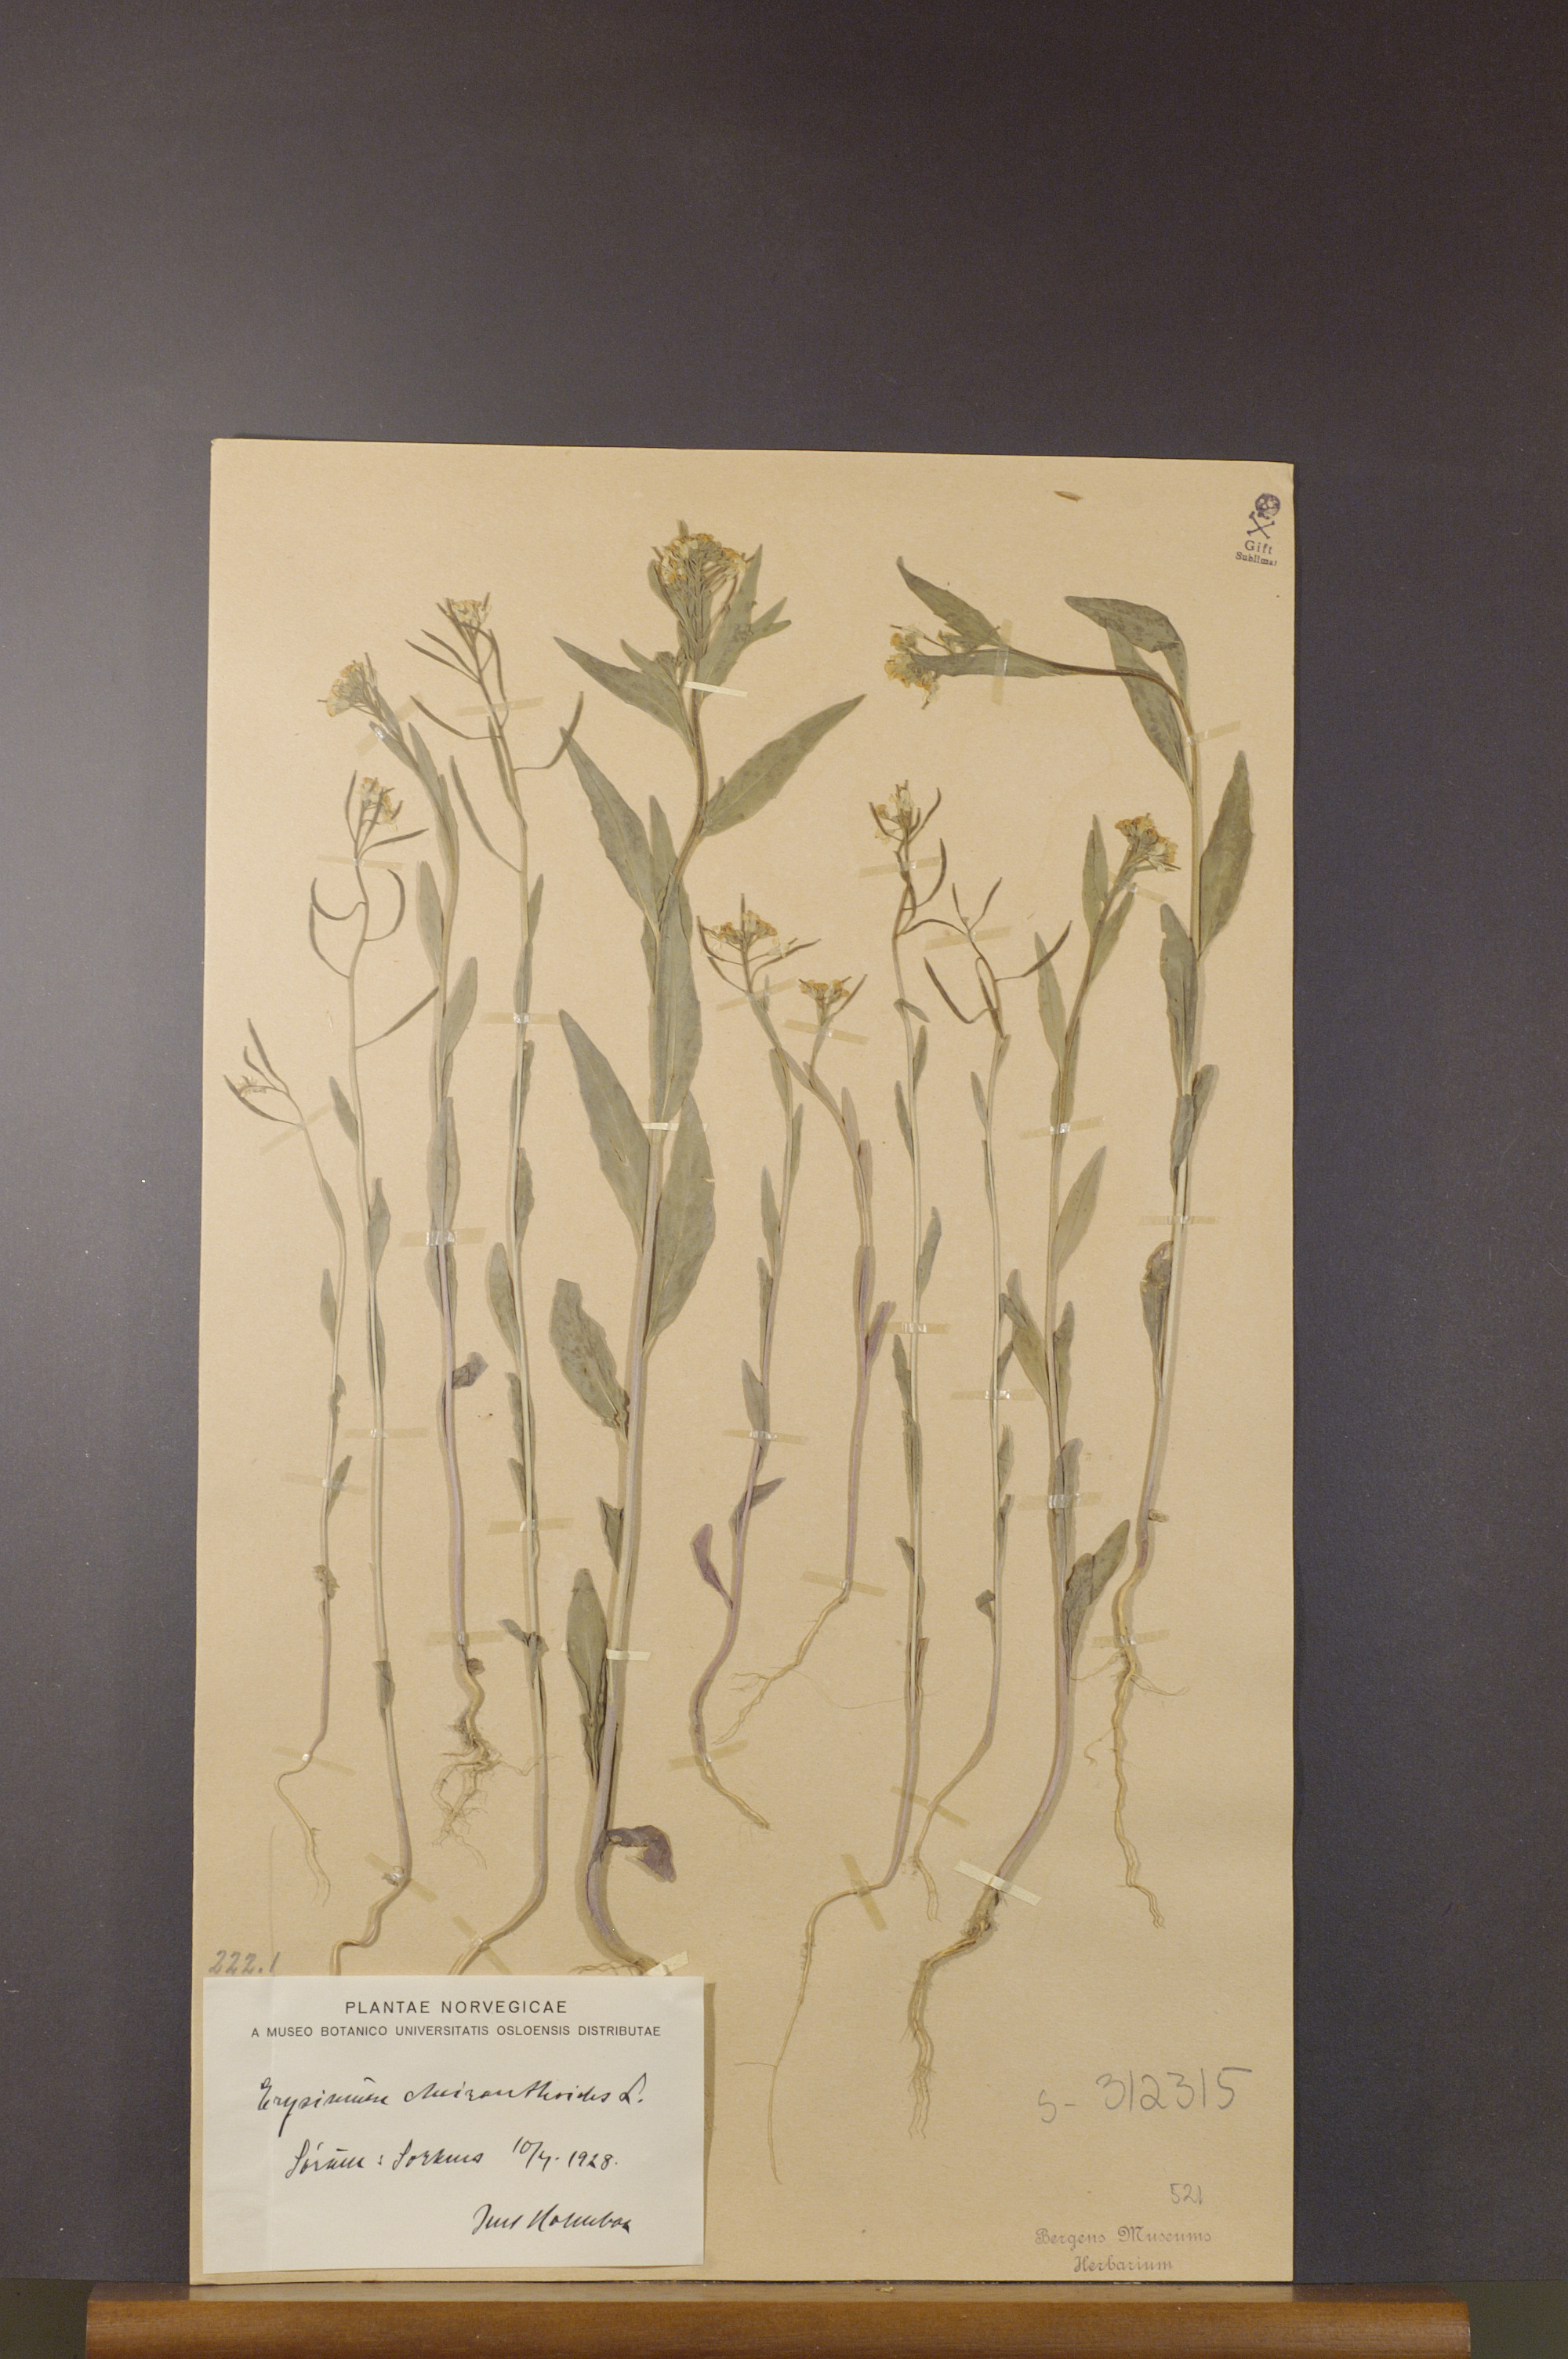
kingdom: Plantae
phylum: Tracheophyta
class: Magnoliopsida
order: Brassicales
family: Brassicaceae
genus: Erysimum
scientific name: Erysimum cheiranthoides
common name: Treacle mustard
